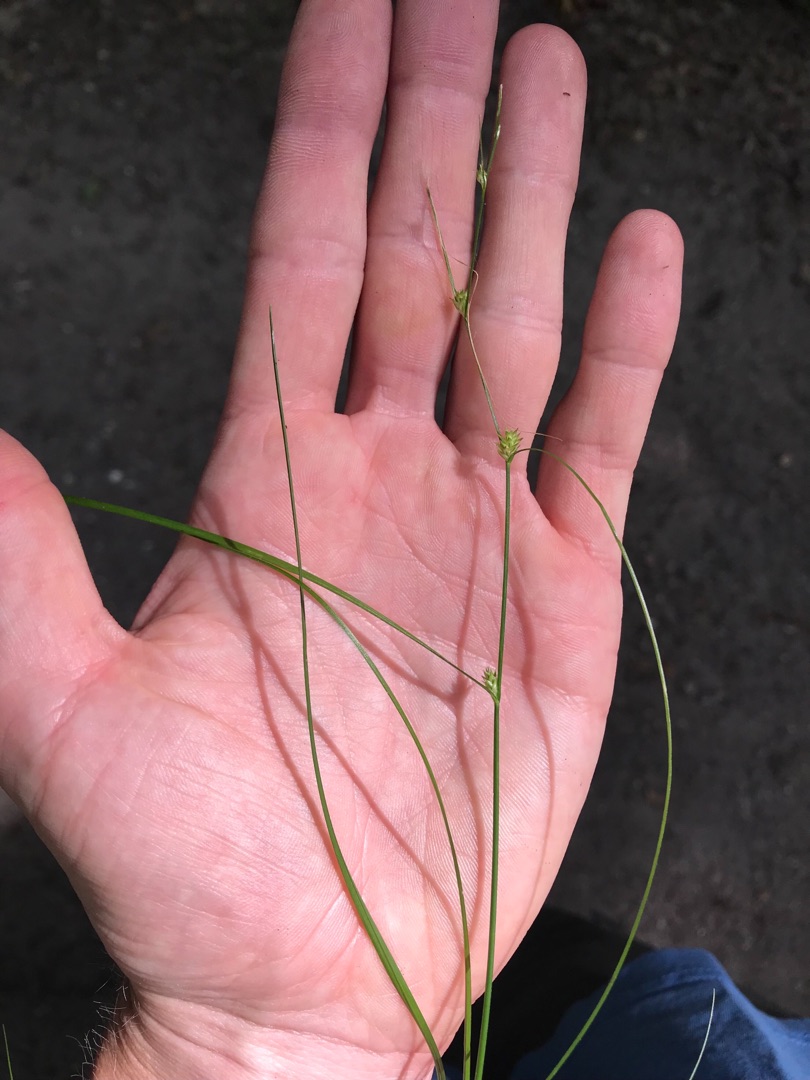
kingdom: Plantae
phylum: Tracheophyta
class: Liliopsida
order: Poales
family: Cyperaceae
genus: Carex
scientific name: Carex remota
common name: Akselblomstret star
